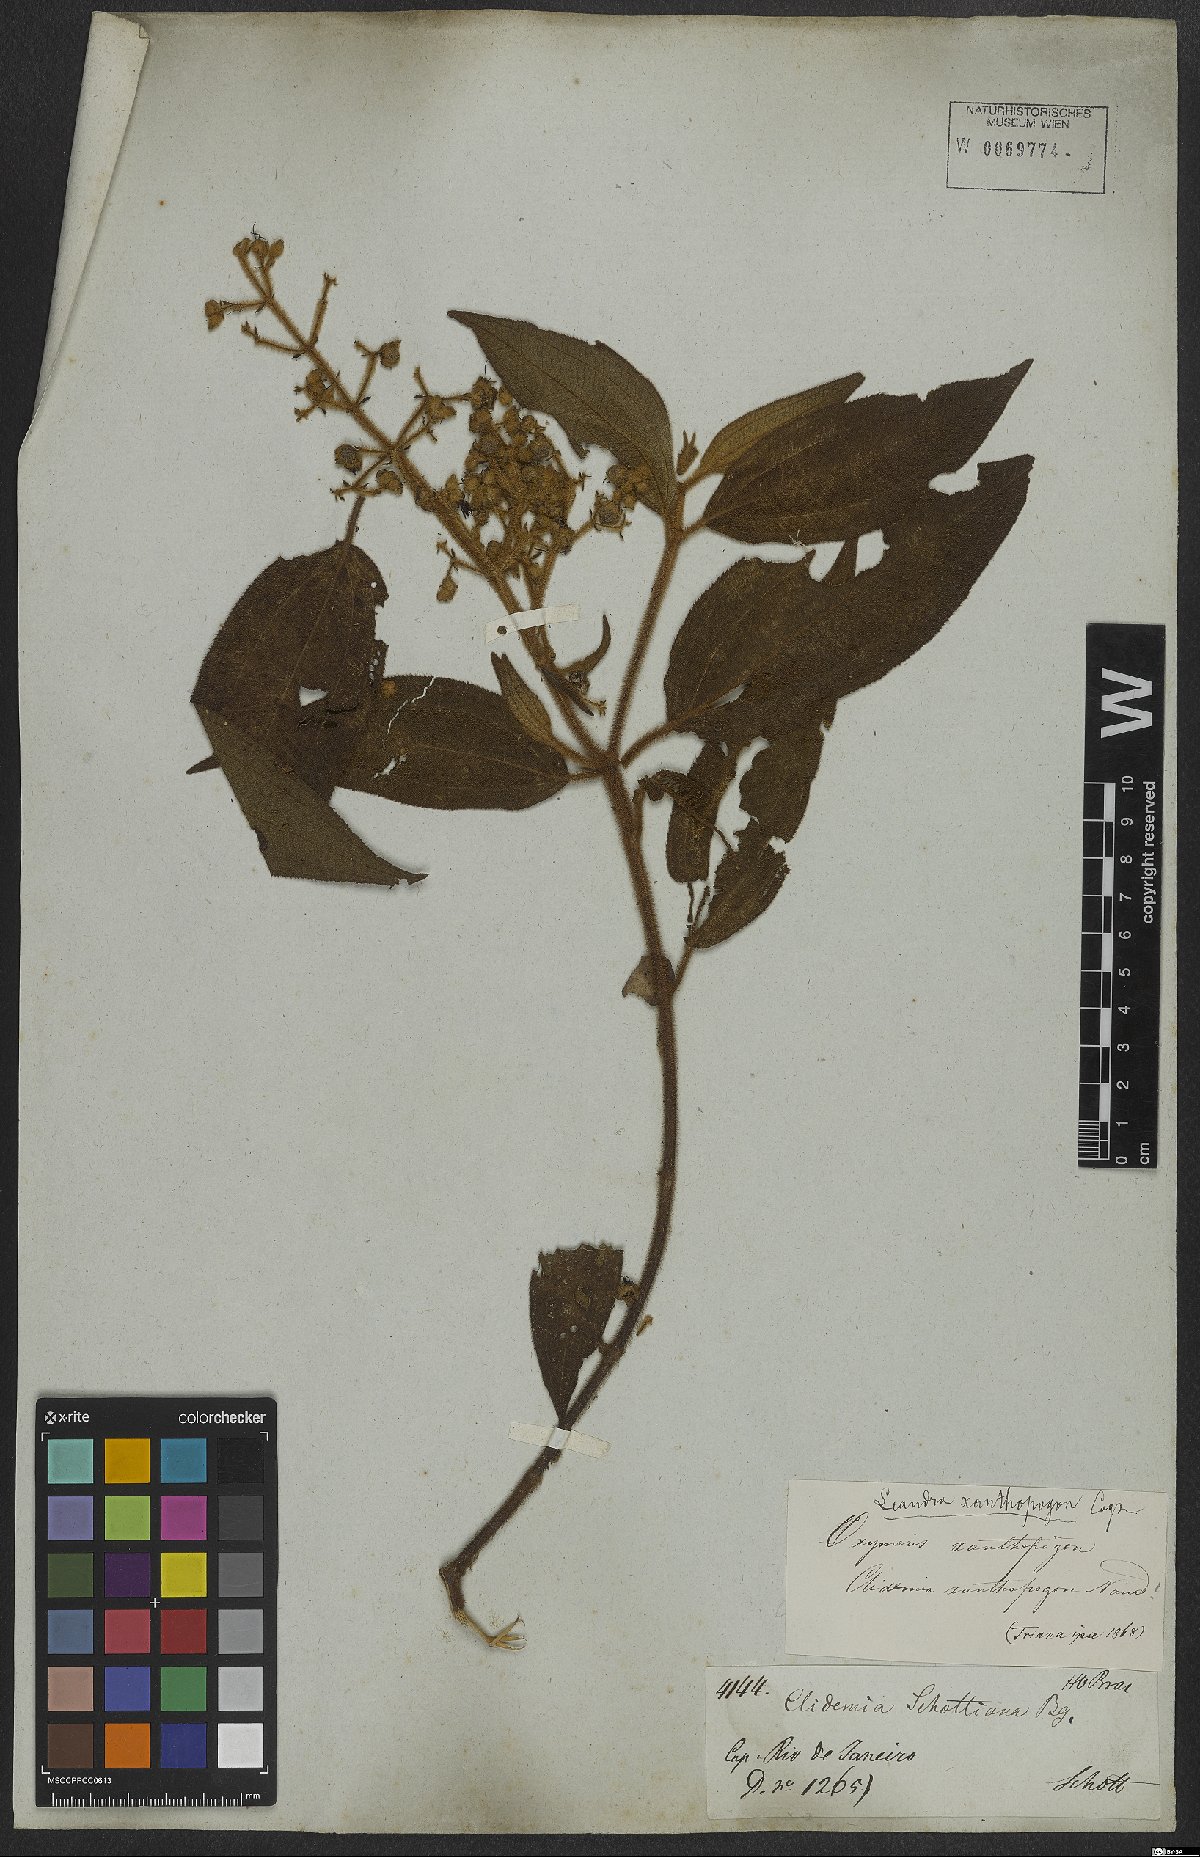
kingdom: Plantae
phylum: Tracheophyta
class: Magnoliopsida
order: Myrtales
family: Melastomataceae
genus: Miconia
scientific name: Miconia xanthopogon
